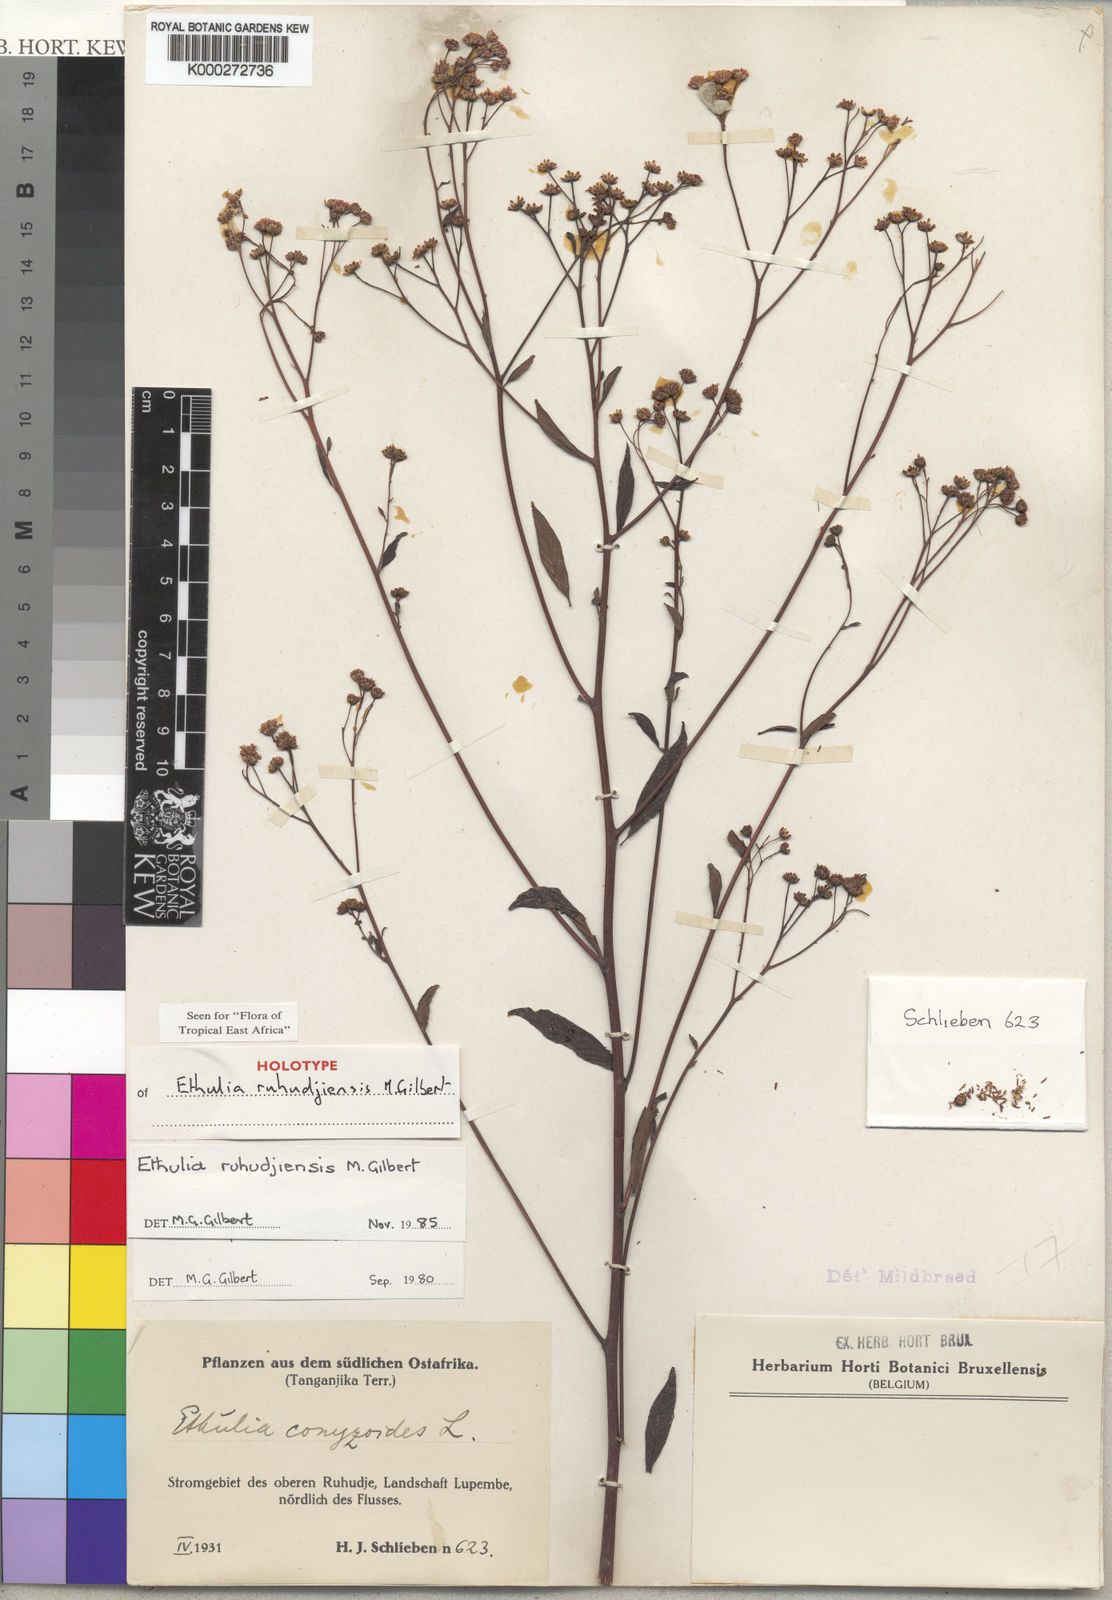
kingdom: Plantae
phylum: Tracheophyta
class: Magnoliopsida
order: Asterales
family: Asteraceae
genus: Ethulia
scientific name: Ethulia ruhudjiensis
